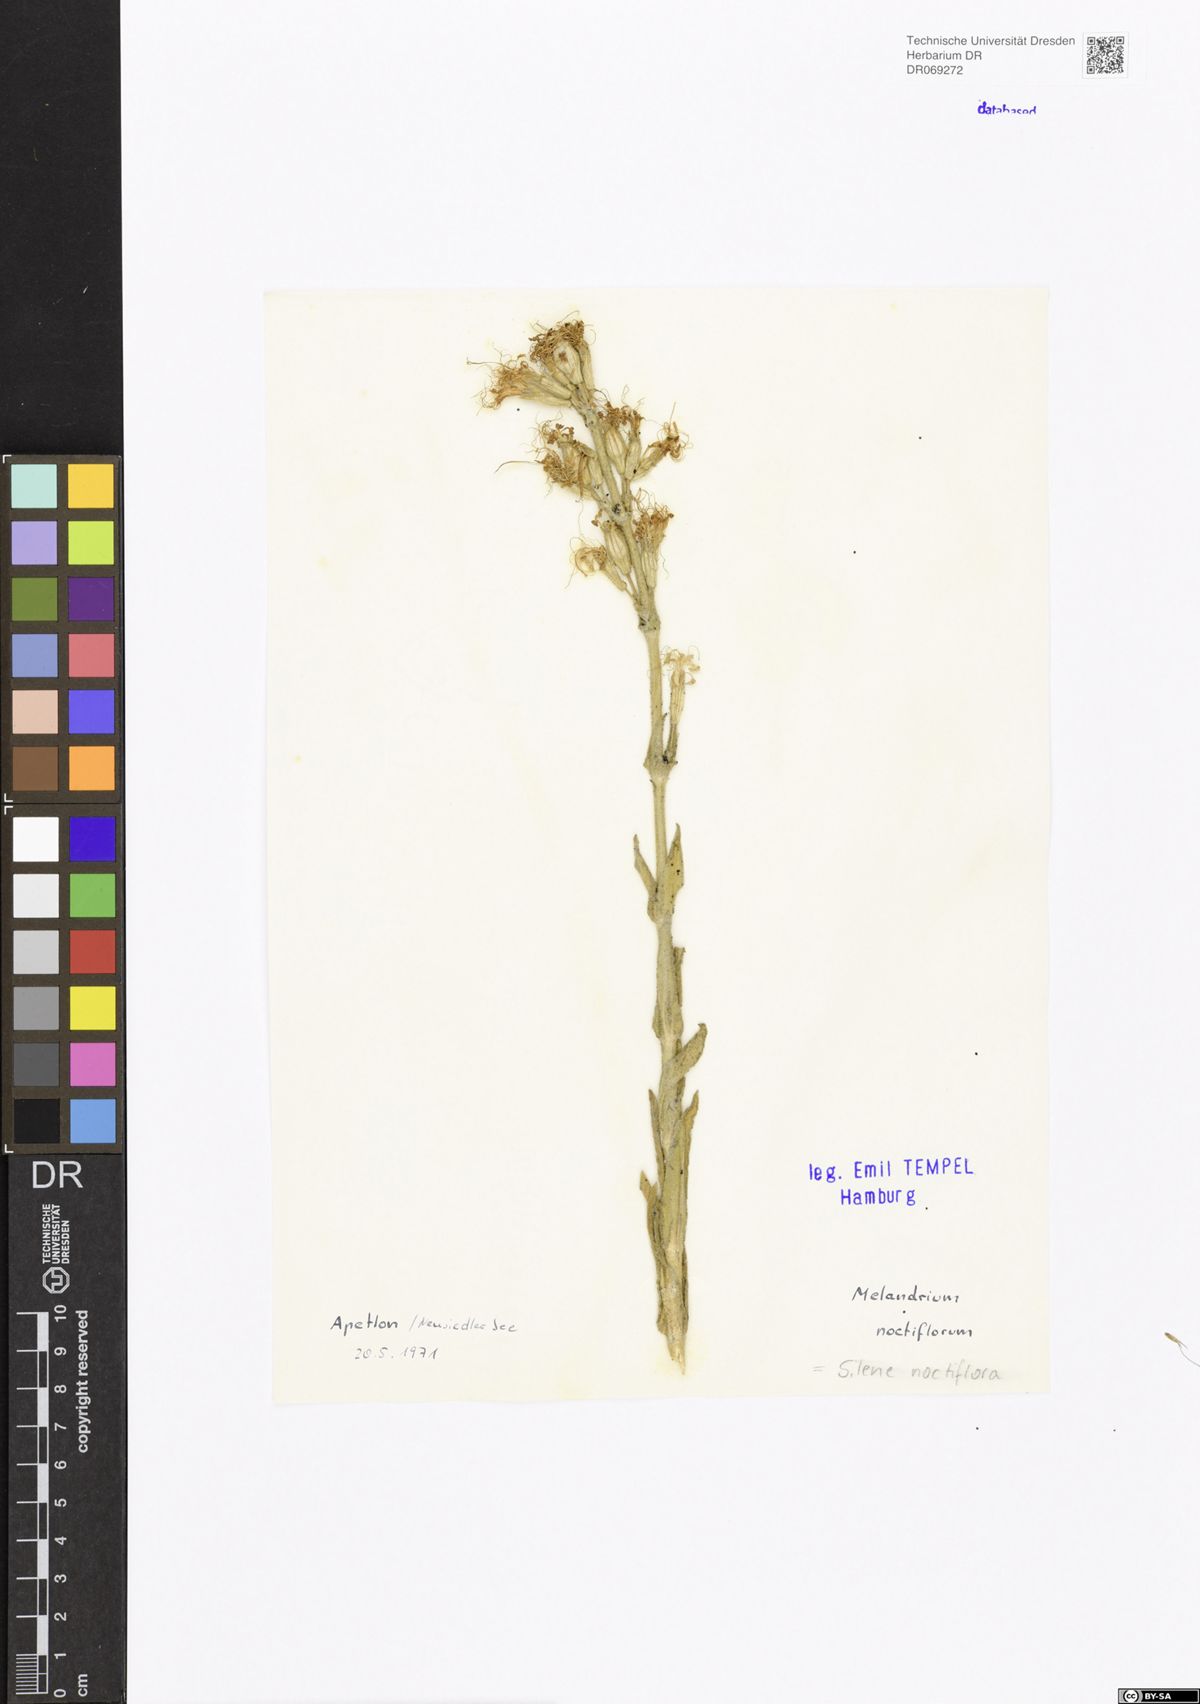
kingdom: Plantae
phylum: Tracheophyta
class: Magnoliopsida
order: Caryophyllales
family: Caryophyllaceae
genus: Silene
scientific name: Silene noctiflora
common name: Night-flowering catchfly
